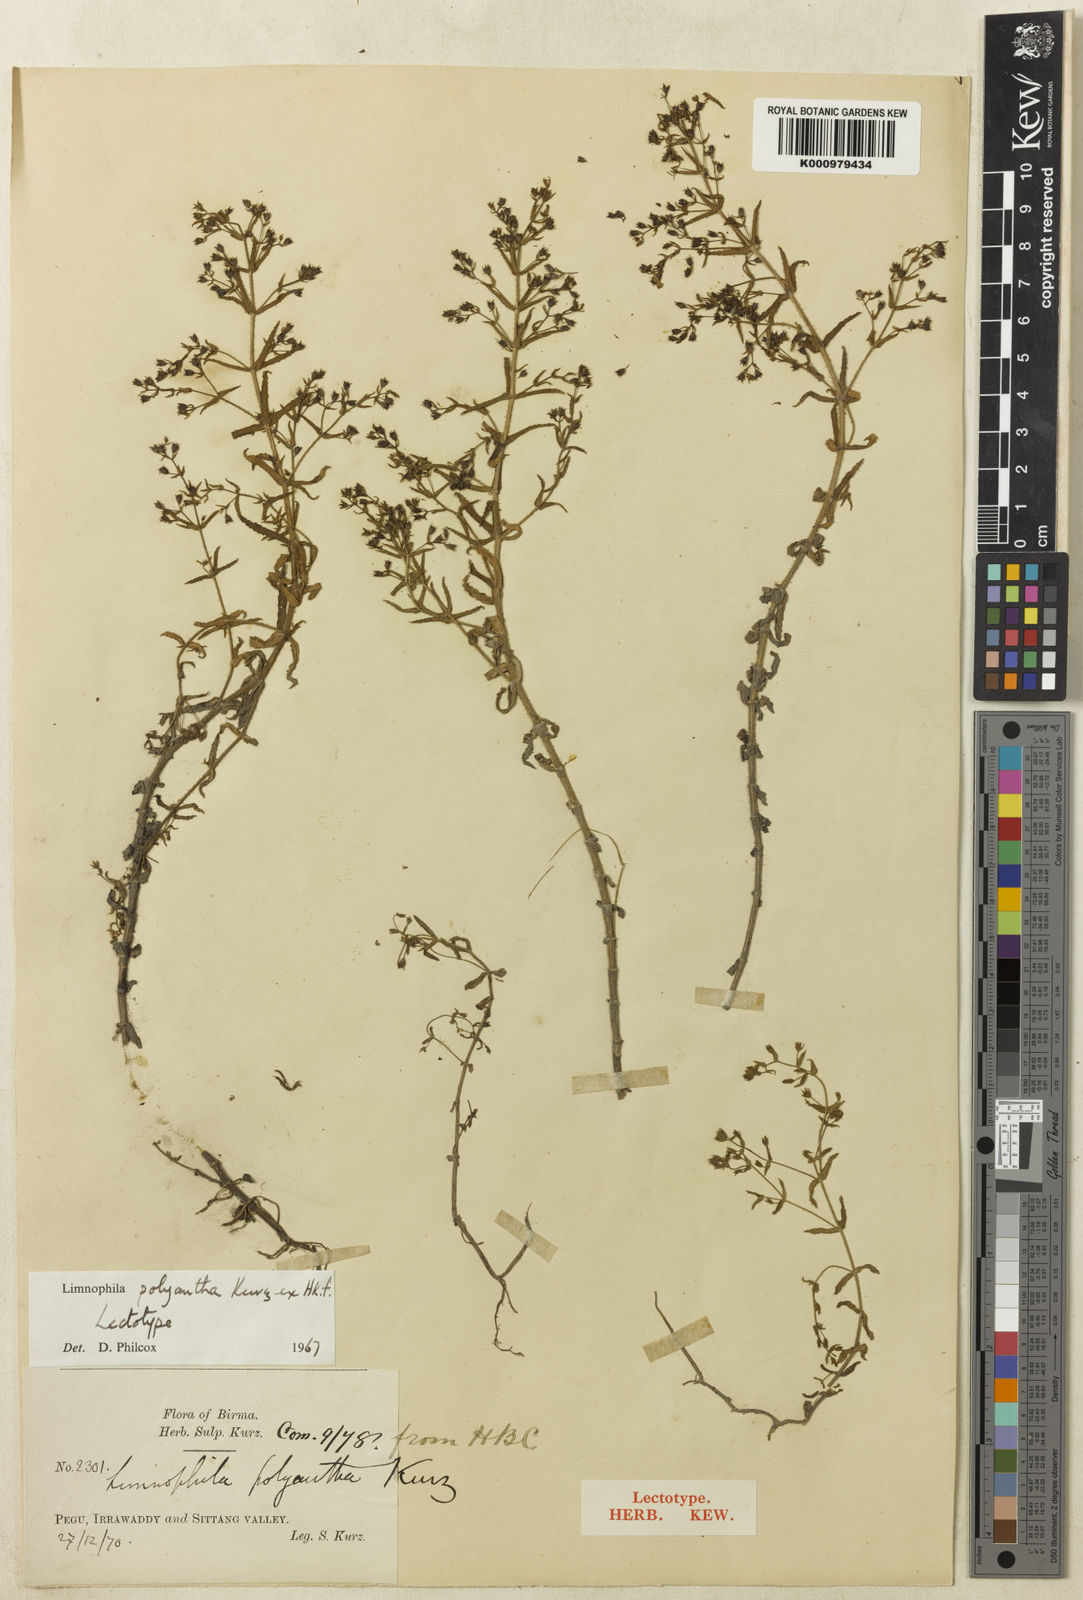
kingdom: Plantae
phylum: Tracheophyta
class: Magnoliopsida
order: Lamiales
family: Plantaginaceae
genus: Limnophila
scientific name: Limnophila polyantha
